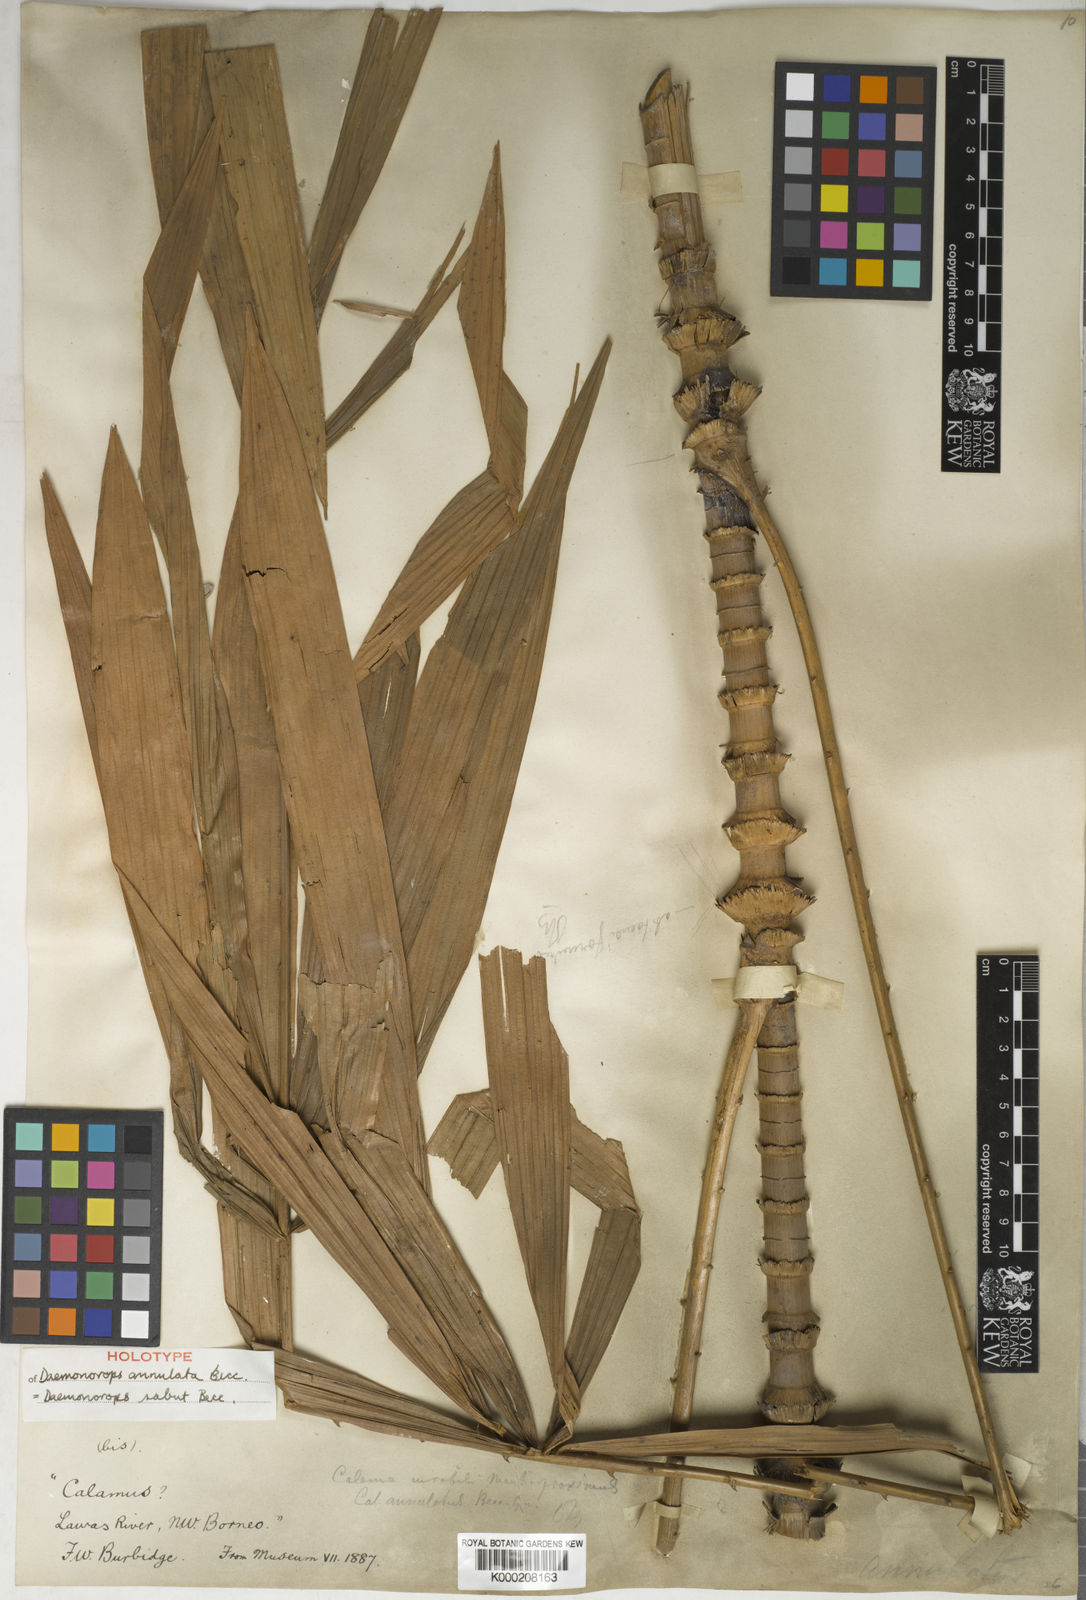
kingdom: Plantae
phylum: Tracheophyta
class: Liliopsida
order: Arecales
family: Arecaceae
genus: Calamus
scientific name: Calamus crinitus
